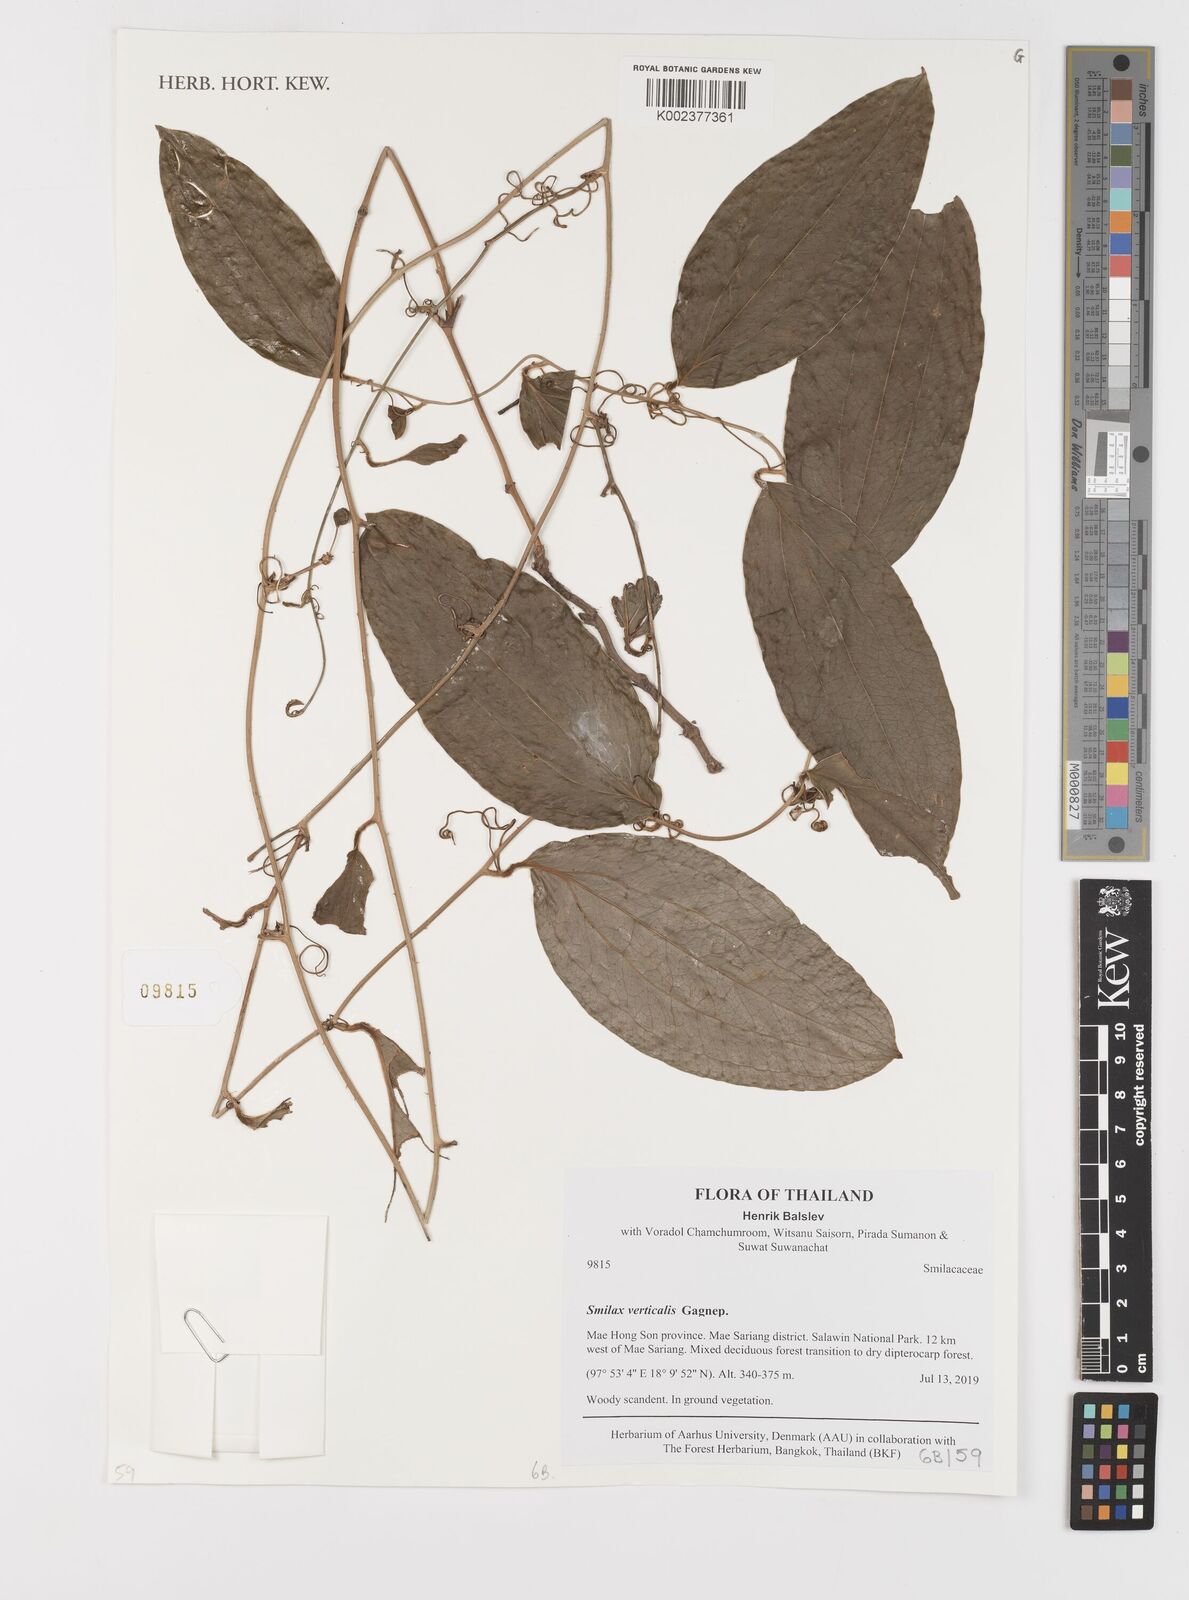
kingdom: Plantae
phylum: Tracheophyta
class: Liliopsida
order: Liliales
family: Smilacaceae
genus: Smilax
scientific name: Smilax verticalis
